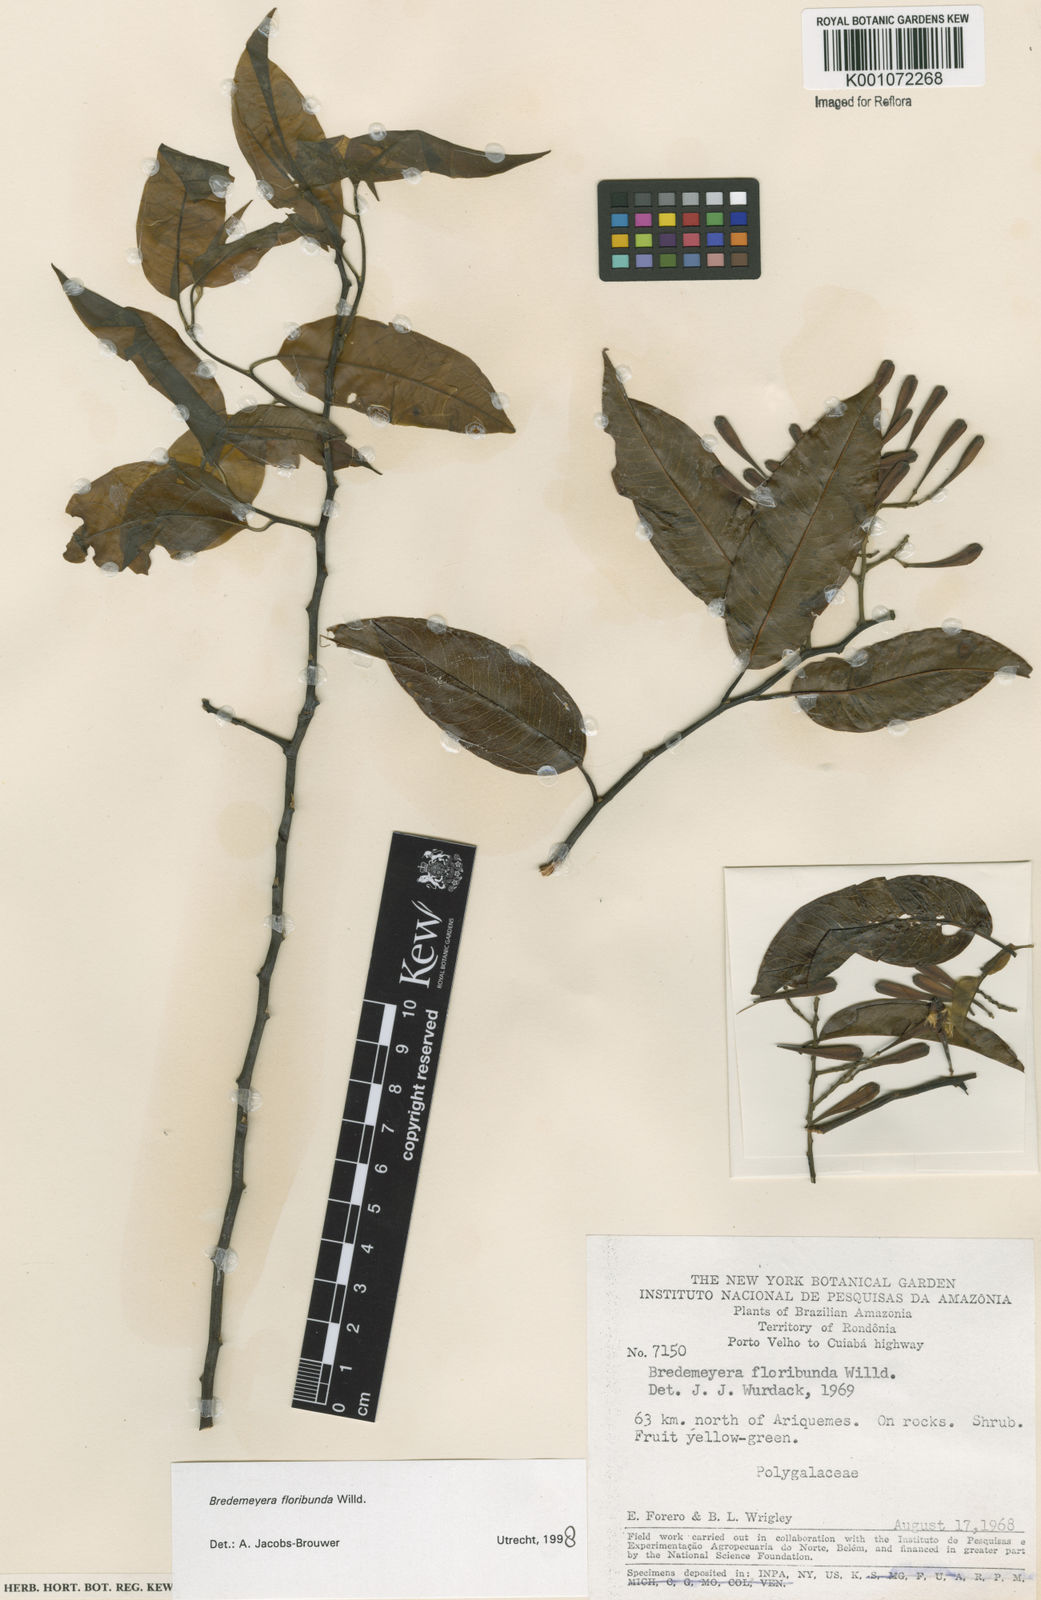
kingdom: Plantae
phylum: Tracheophyta
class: Magnoliopsida
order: Fabales
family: Polygalaceae
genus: Bredemeyera
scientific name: Bredemeyera floribunda
